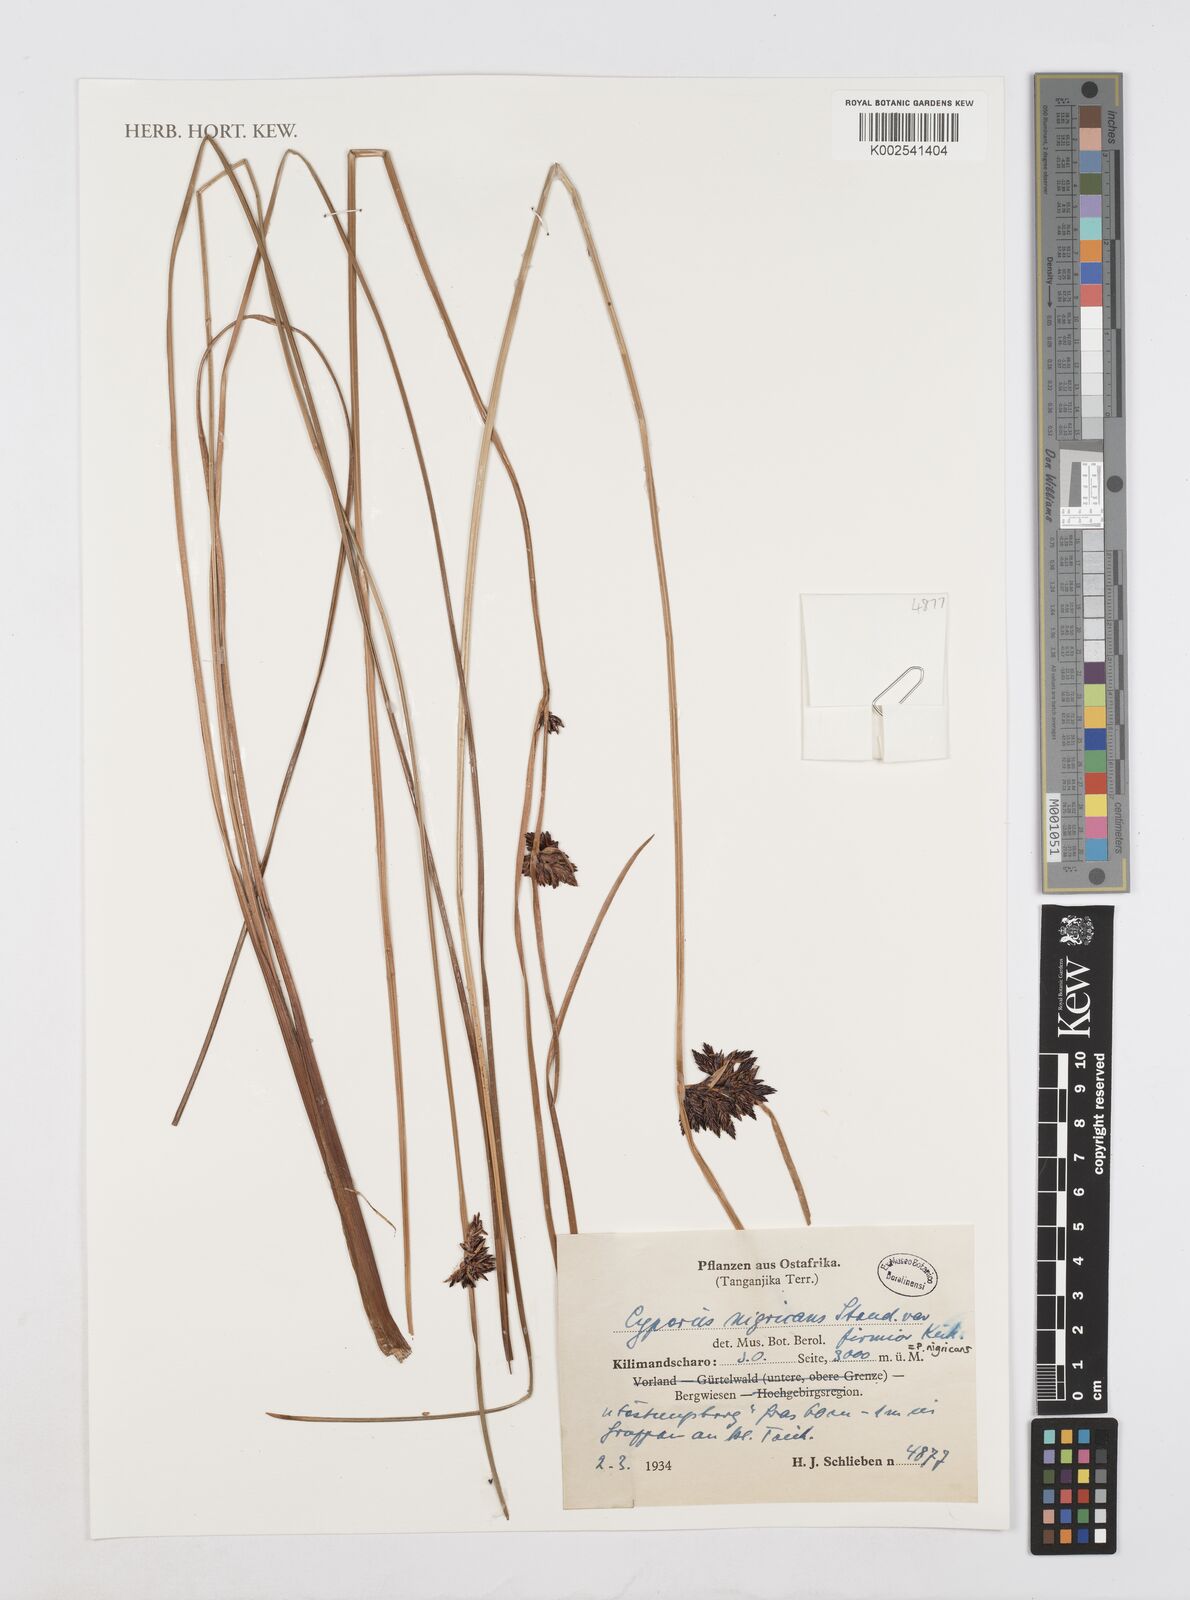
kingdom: Plantae
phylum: Tracheophyta
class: Liliopsida
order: Poales
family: Cyperaceae
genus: Cyperus
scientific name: Cyperus nigricans
